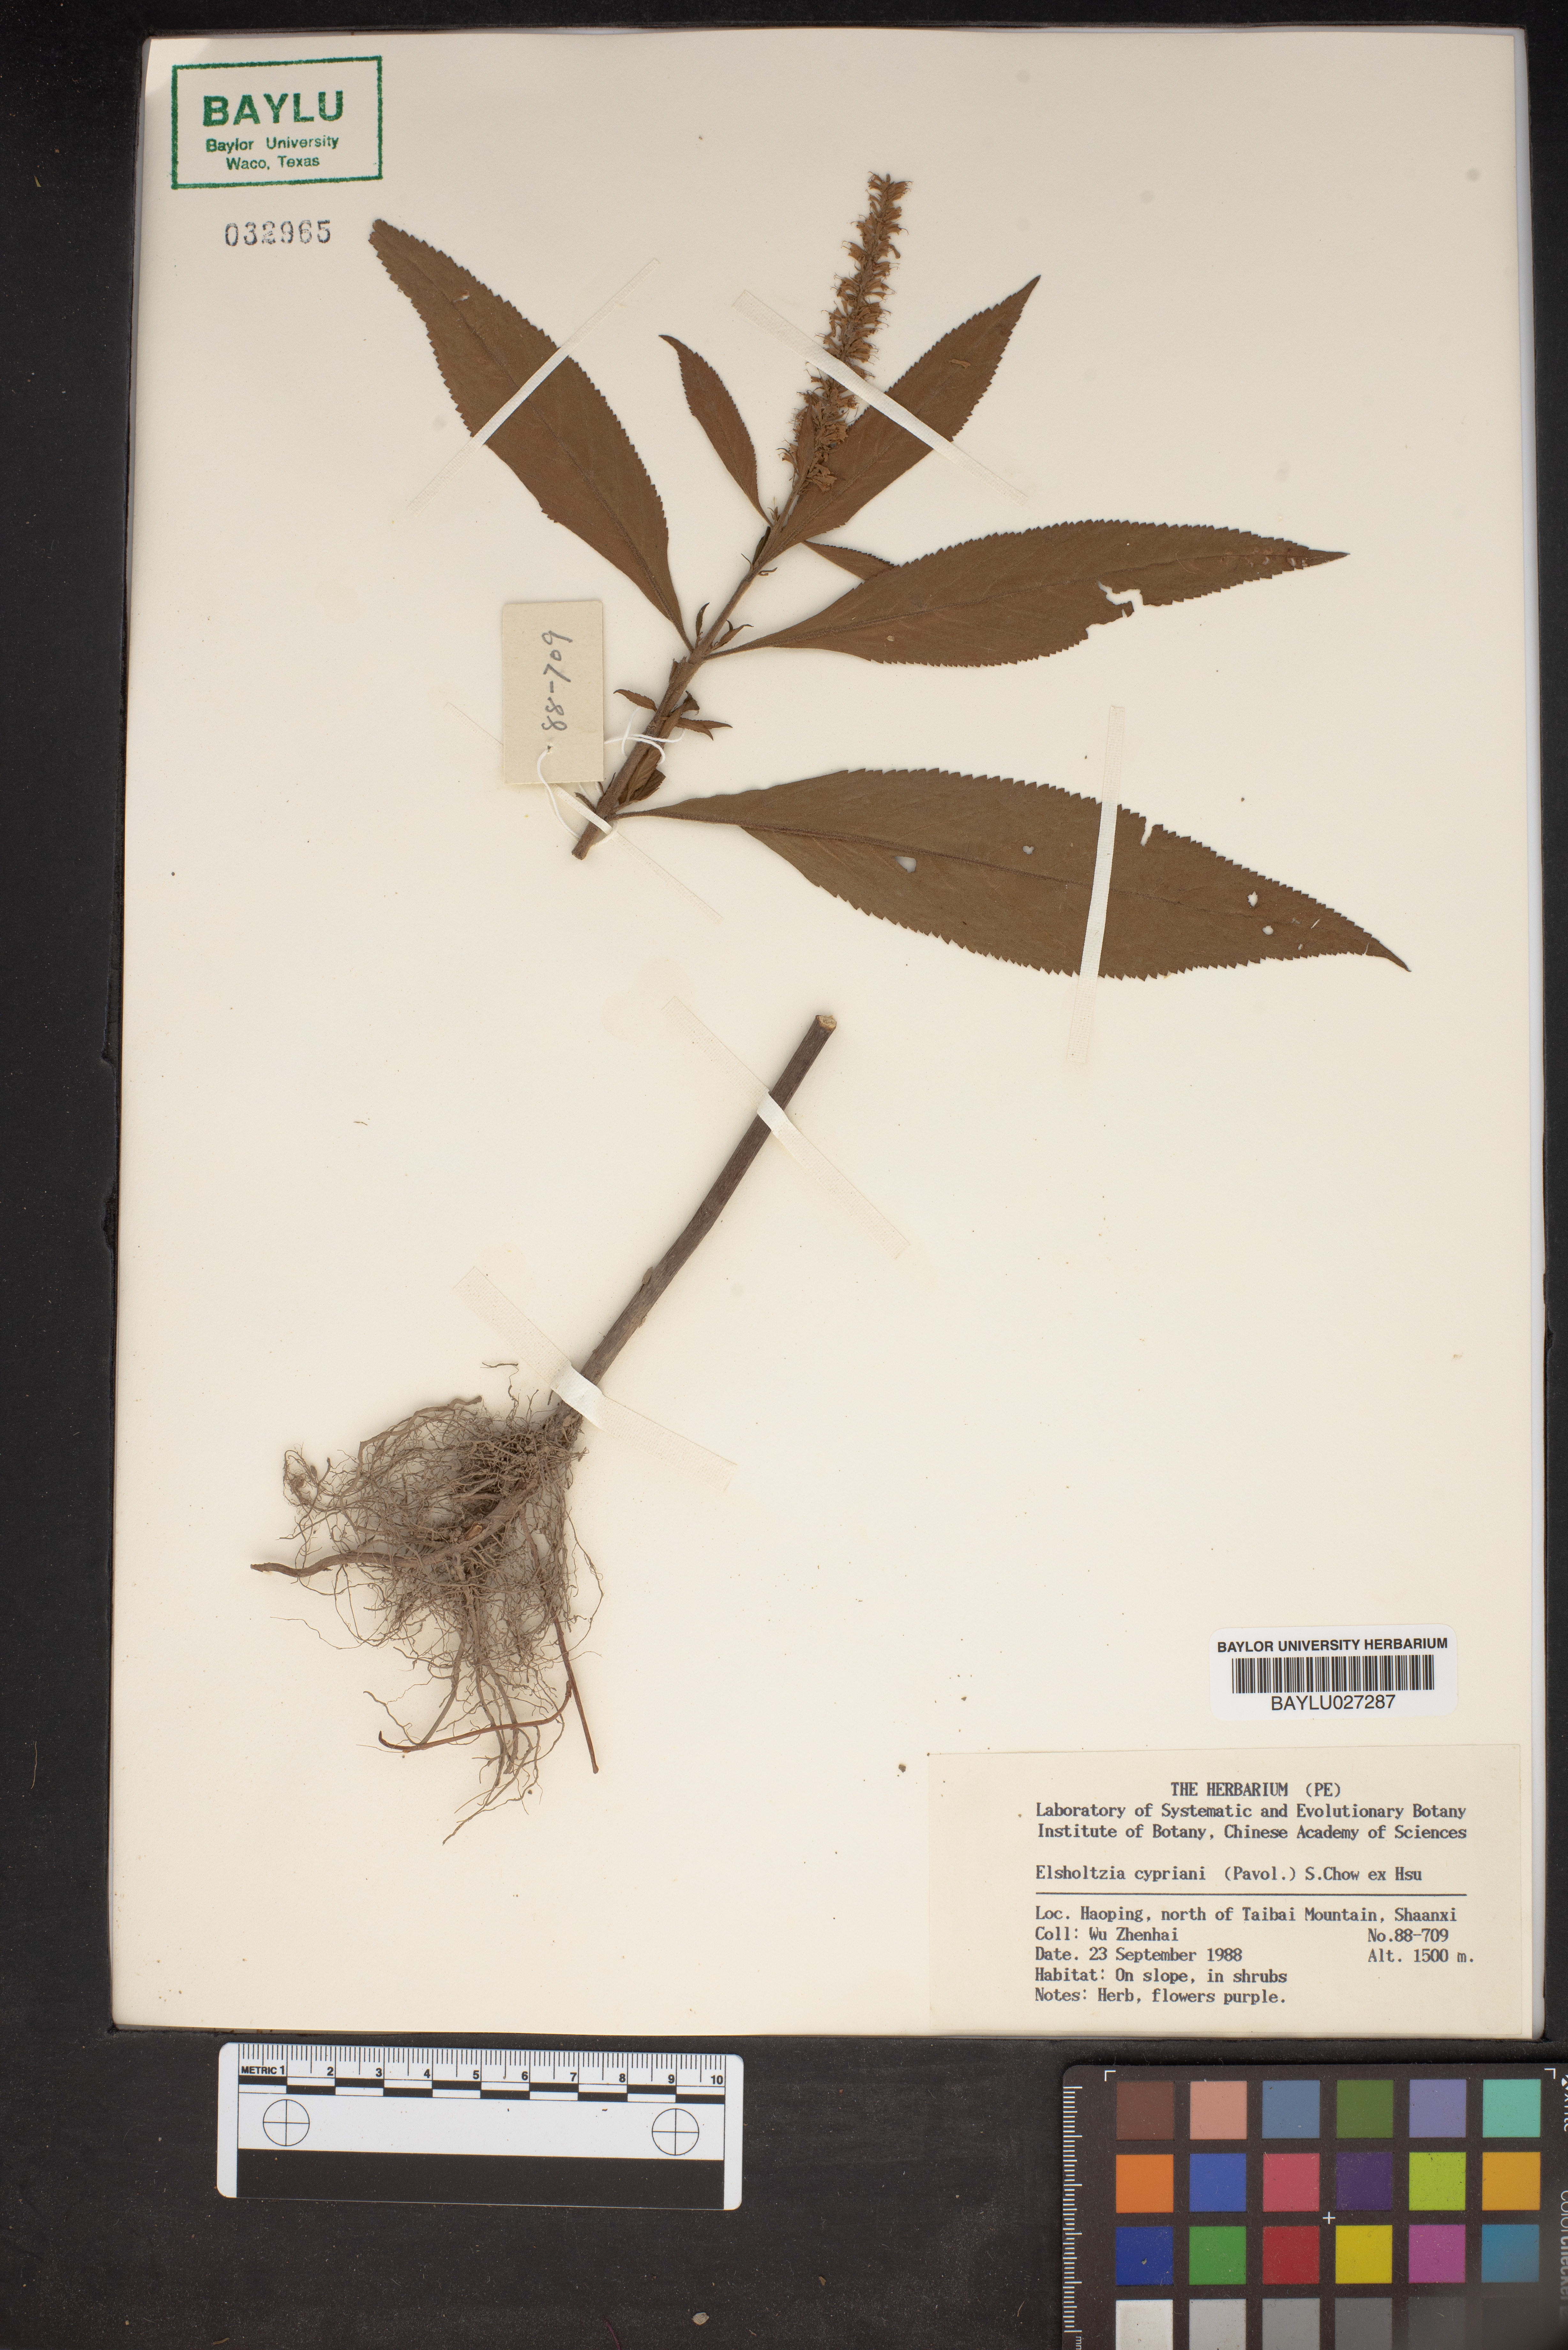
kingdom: Plantae
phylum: Tracheophyta
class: Magnoliopsida
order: Lamiales
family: Lamiaceae
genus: Elsholtzia
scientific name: Elsholtzia cyprianii
